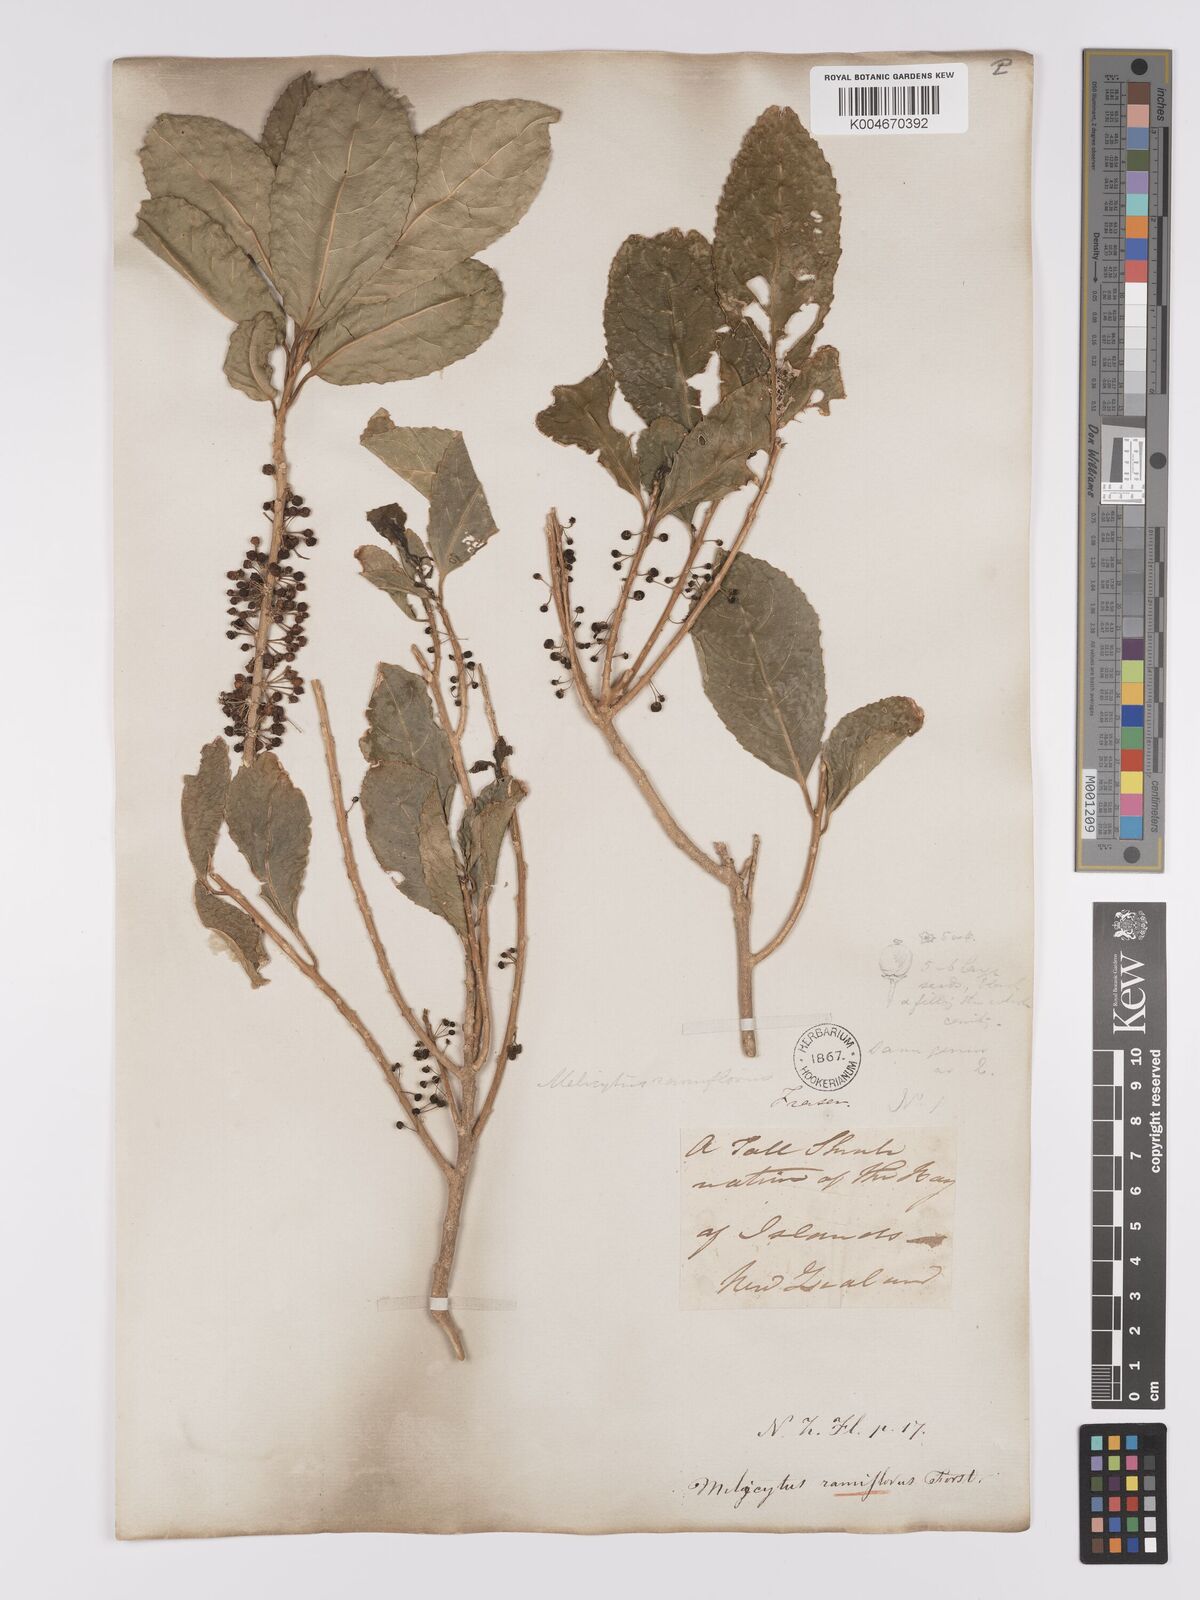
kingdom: Plantae
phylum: Tracheophyta
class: Magnoliopsida
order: Malpighiales
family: Violaceae
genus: Melicytus
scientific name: Melicytus ramiflorus
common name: Mahoe
